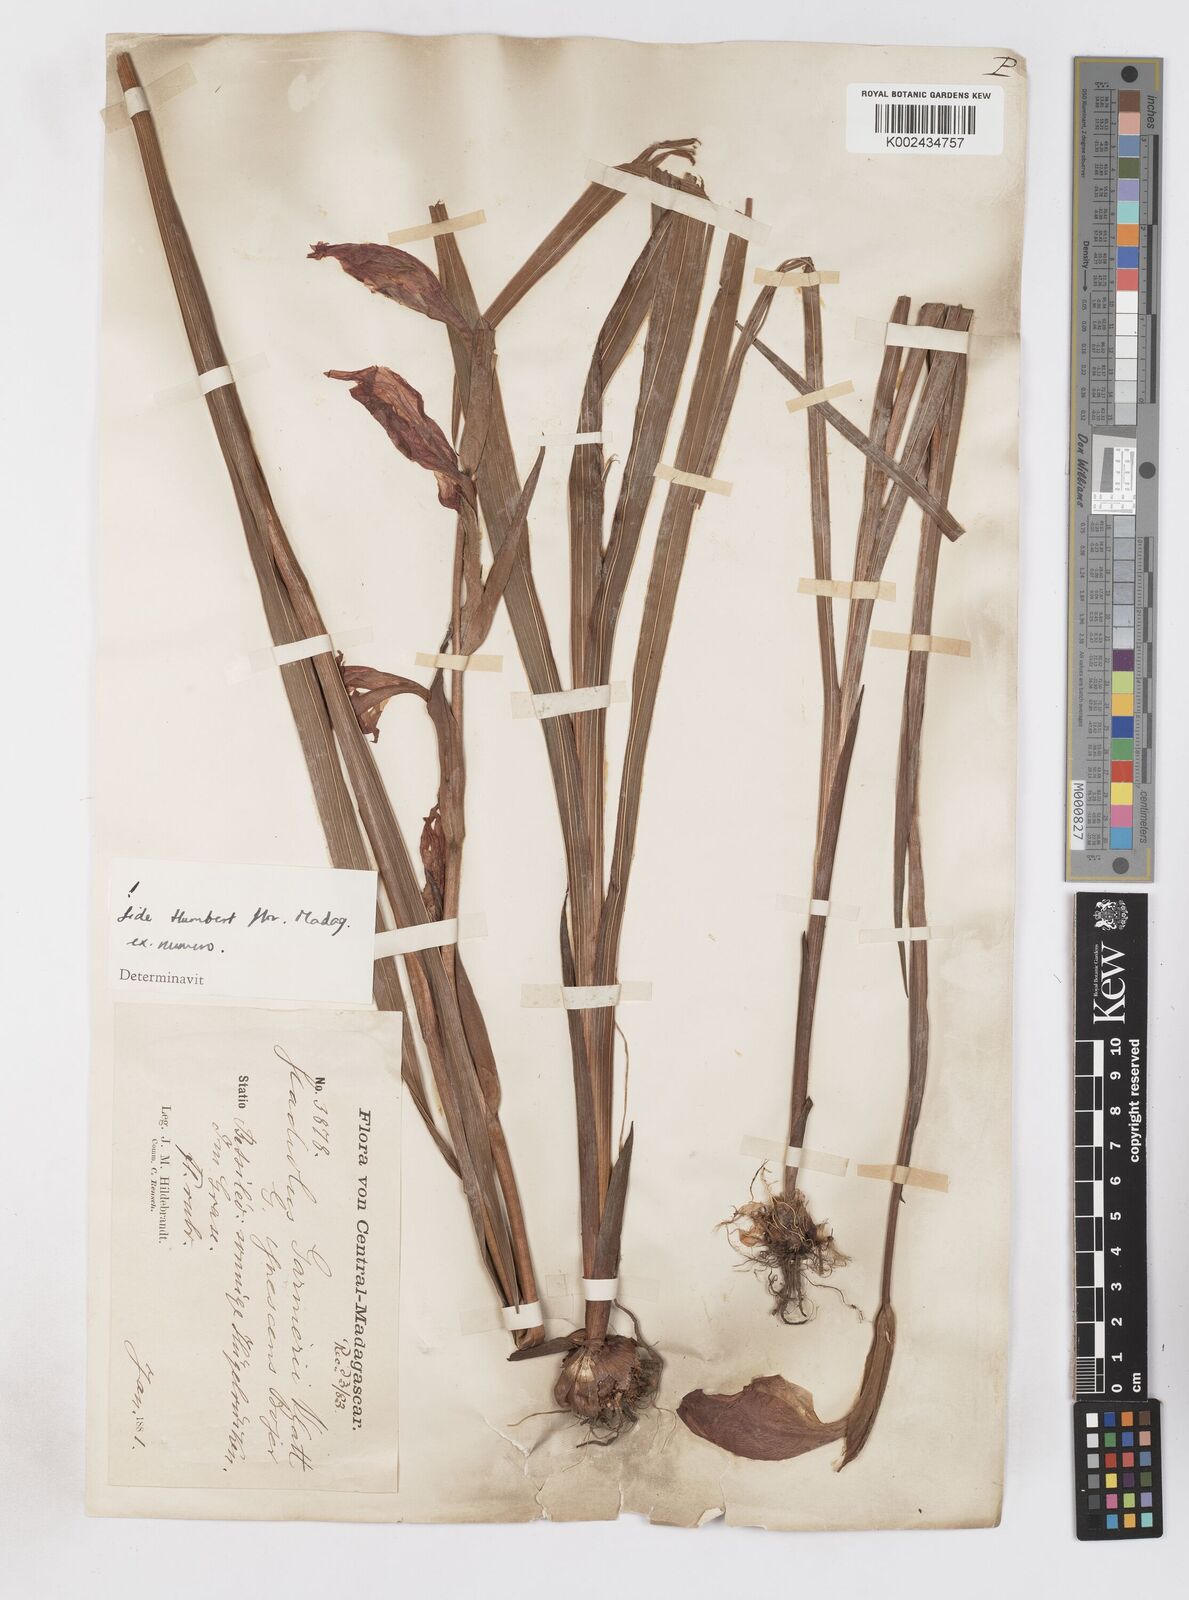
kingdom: Plantae
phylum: Tracheophyta
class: Liliopsida
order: Asparagales
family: Iridaceae
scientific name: Iridaceae
